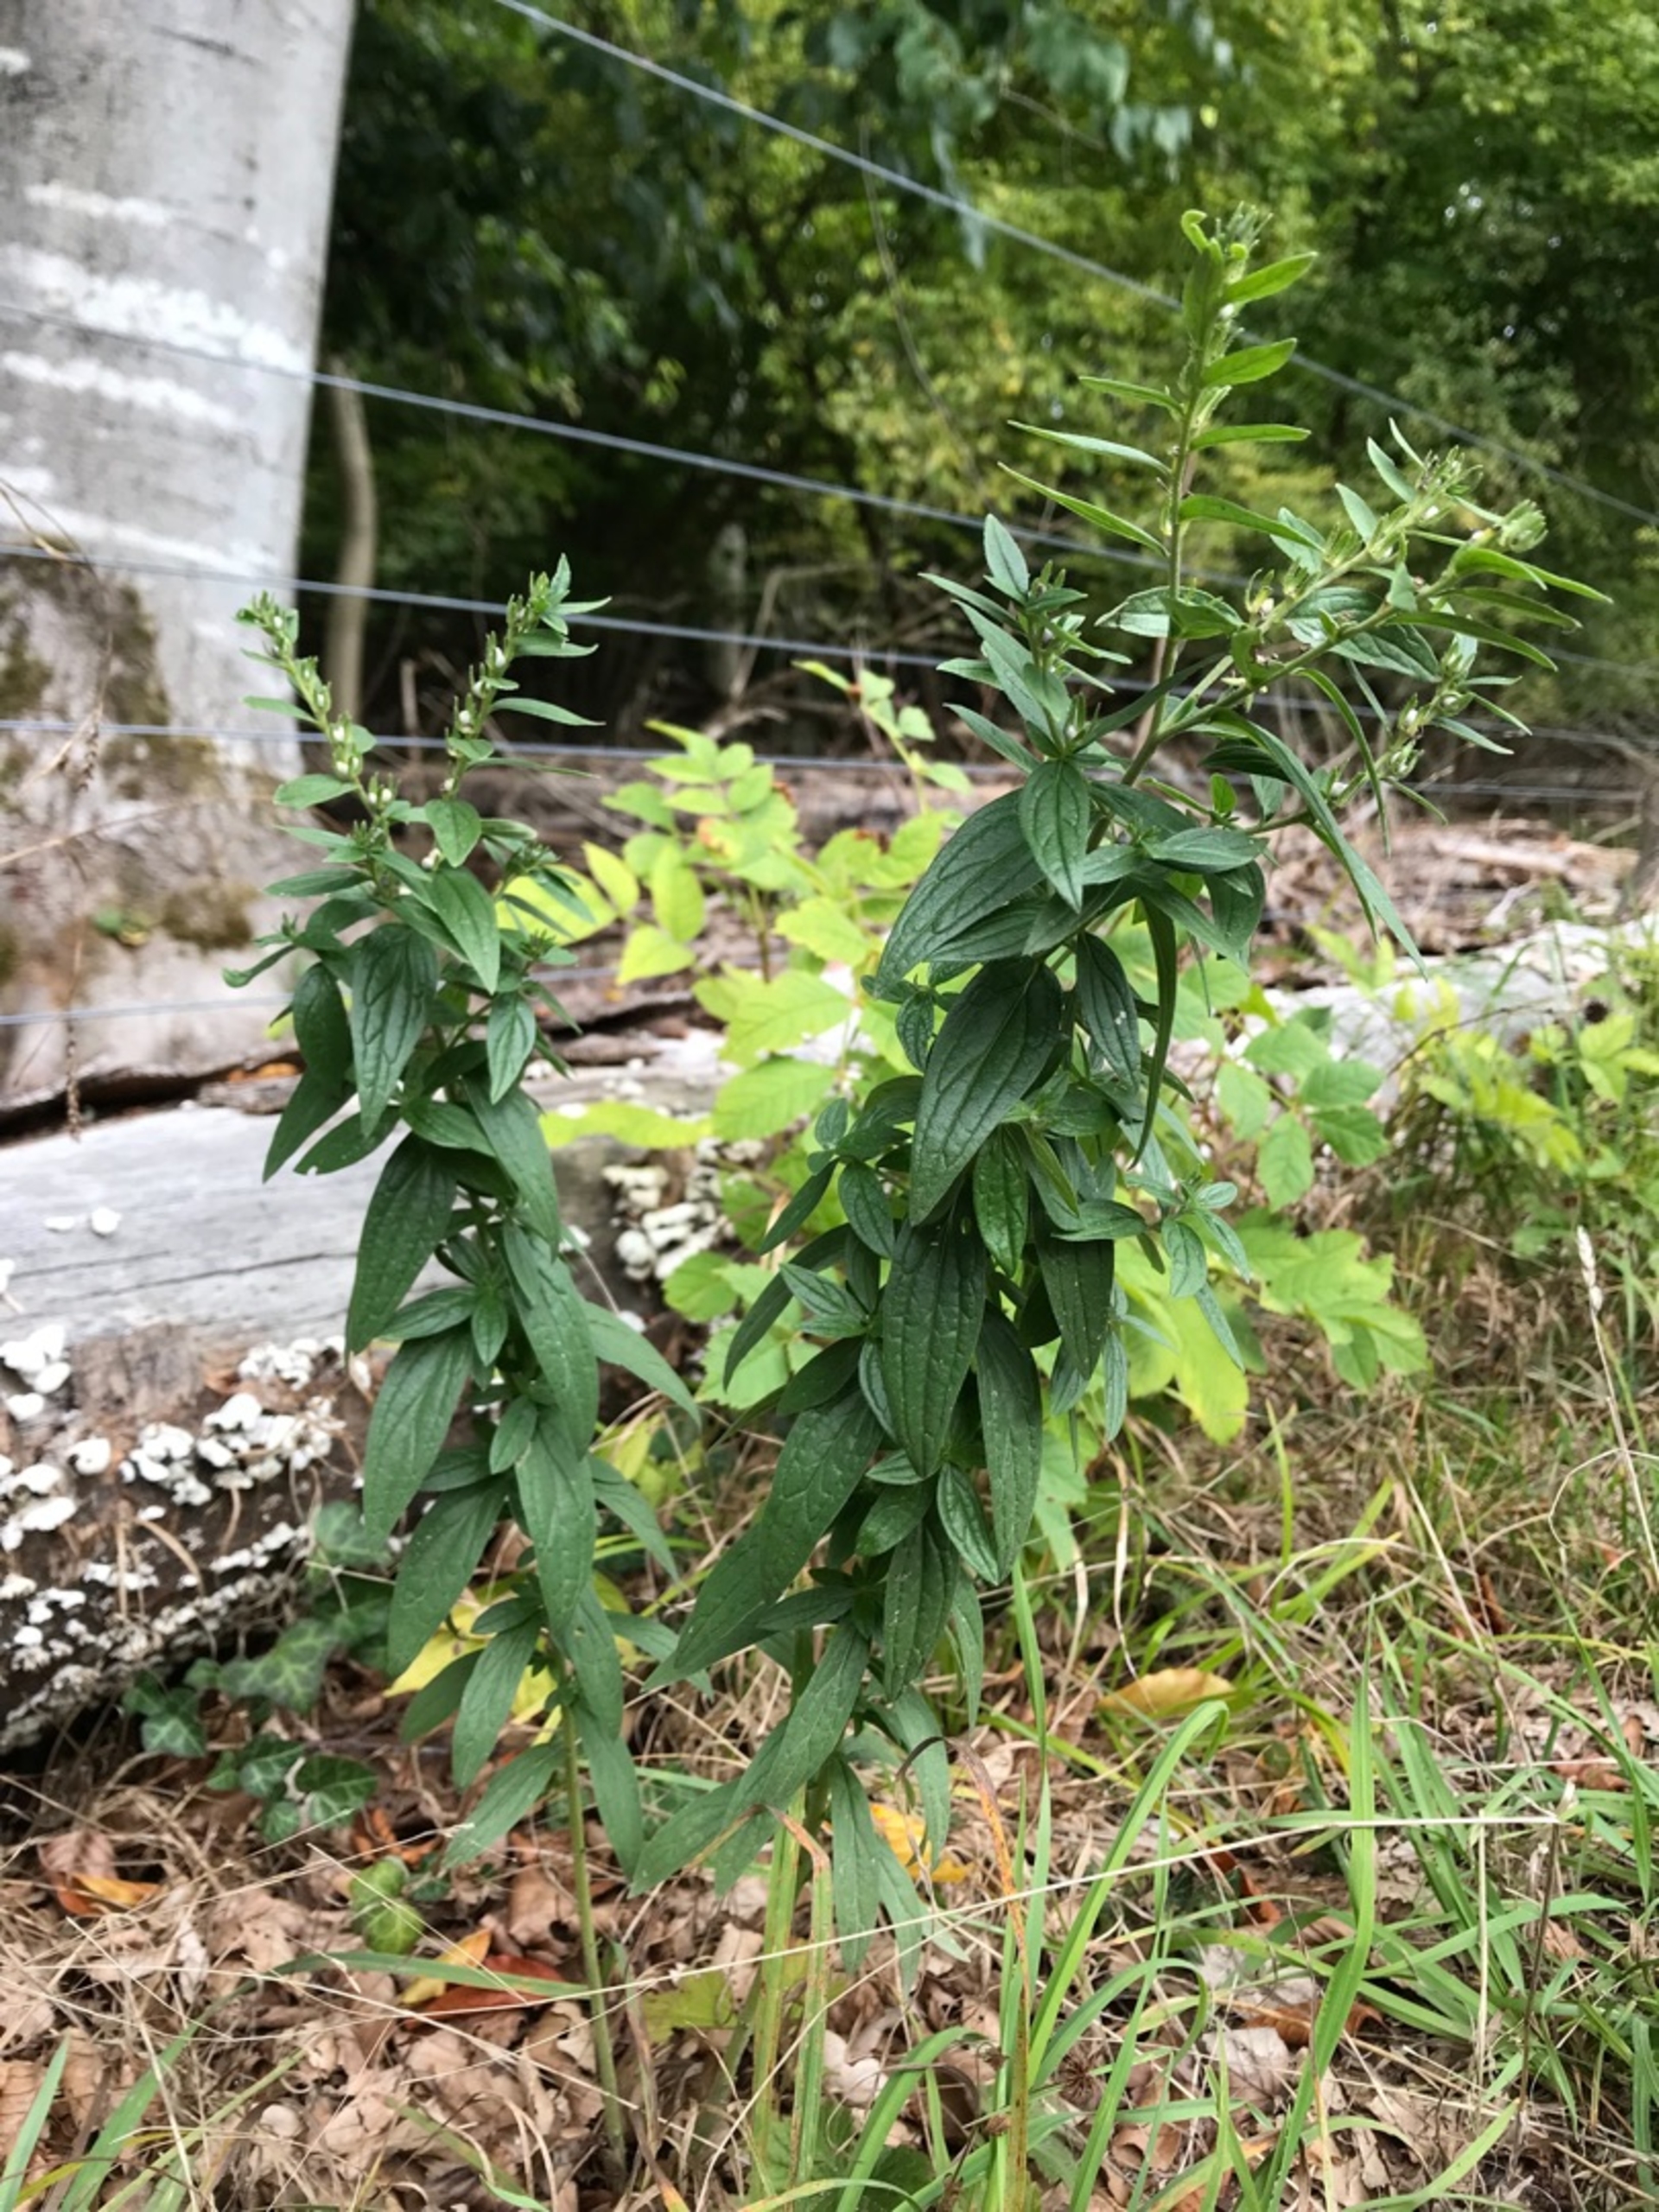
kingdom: Plantae
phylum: Tracheophyta
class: Magnoliopsida
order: Boraginales
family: Boraginaceae
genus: Lithospermum
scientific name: Lithospermum officinale
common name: Læge-stenfrø
